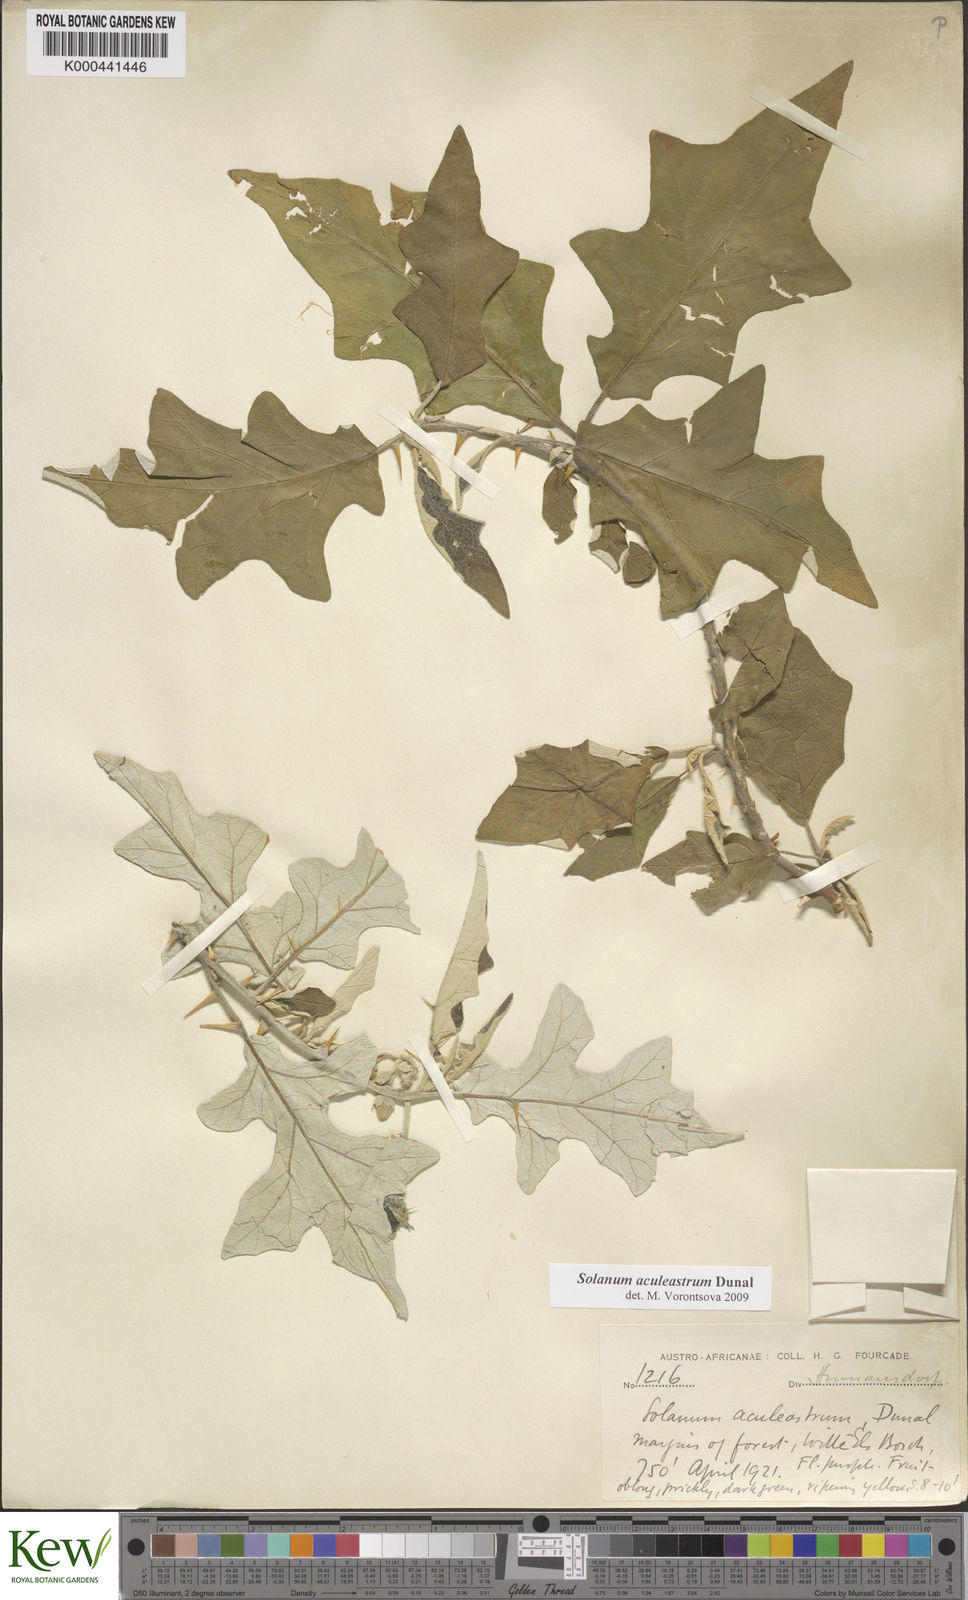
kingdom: Plantae
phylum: Tracheophyta
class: Magnoliopsida
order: Solanales
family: Solanaceae
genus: Solanum
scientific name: Solanum aculeastrum
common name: Goat bitter-apple
